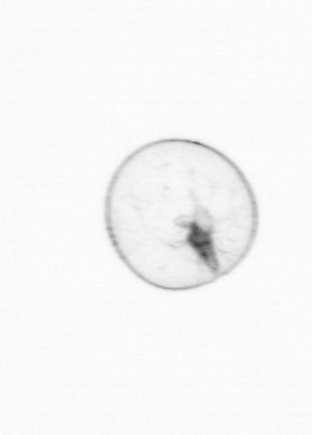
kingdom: Chromista
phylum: Myzozoa
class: Dinophyceae
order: Noctilucales
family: Noctilucaceae
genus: Noctiluca
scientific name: Noctiluca scintillans
